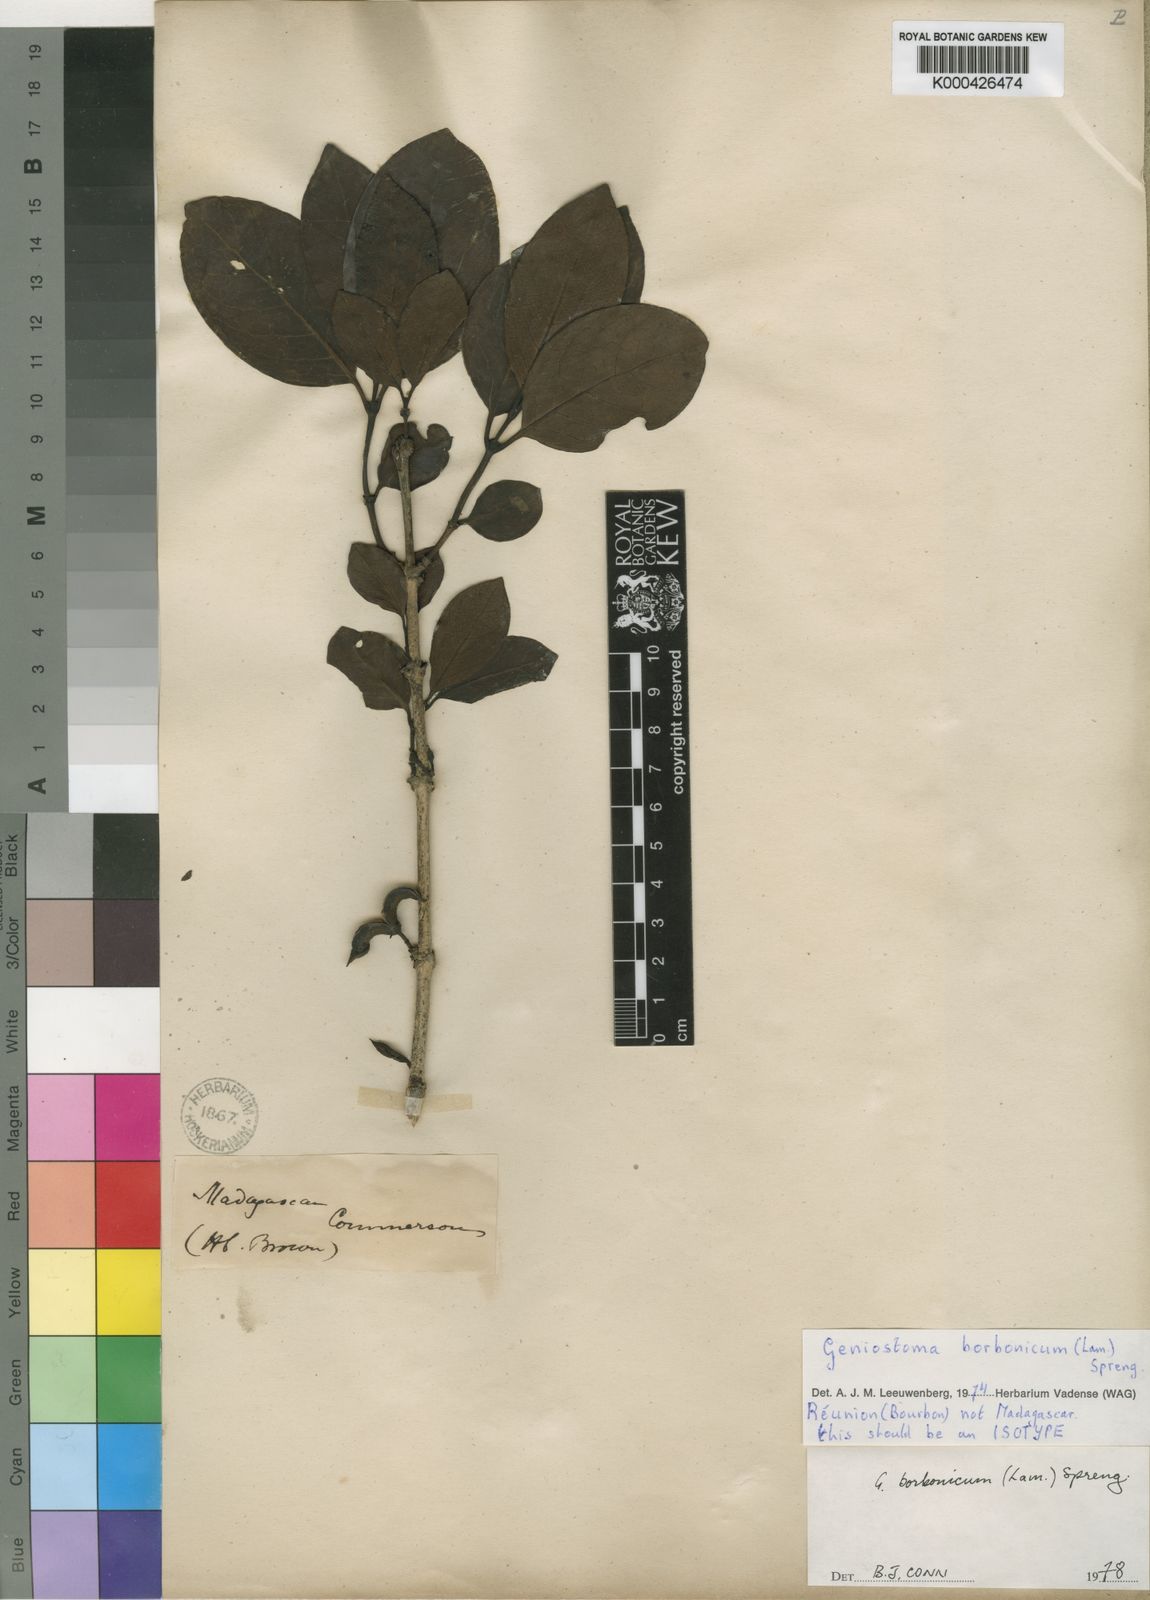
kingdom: Plantae
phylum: Tracheophyta
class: Magnoliopsida
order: Gentianales
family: Loganiaceae
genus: Geniostoma
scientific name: Geniostoma borbonicum
